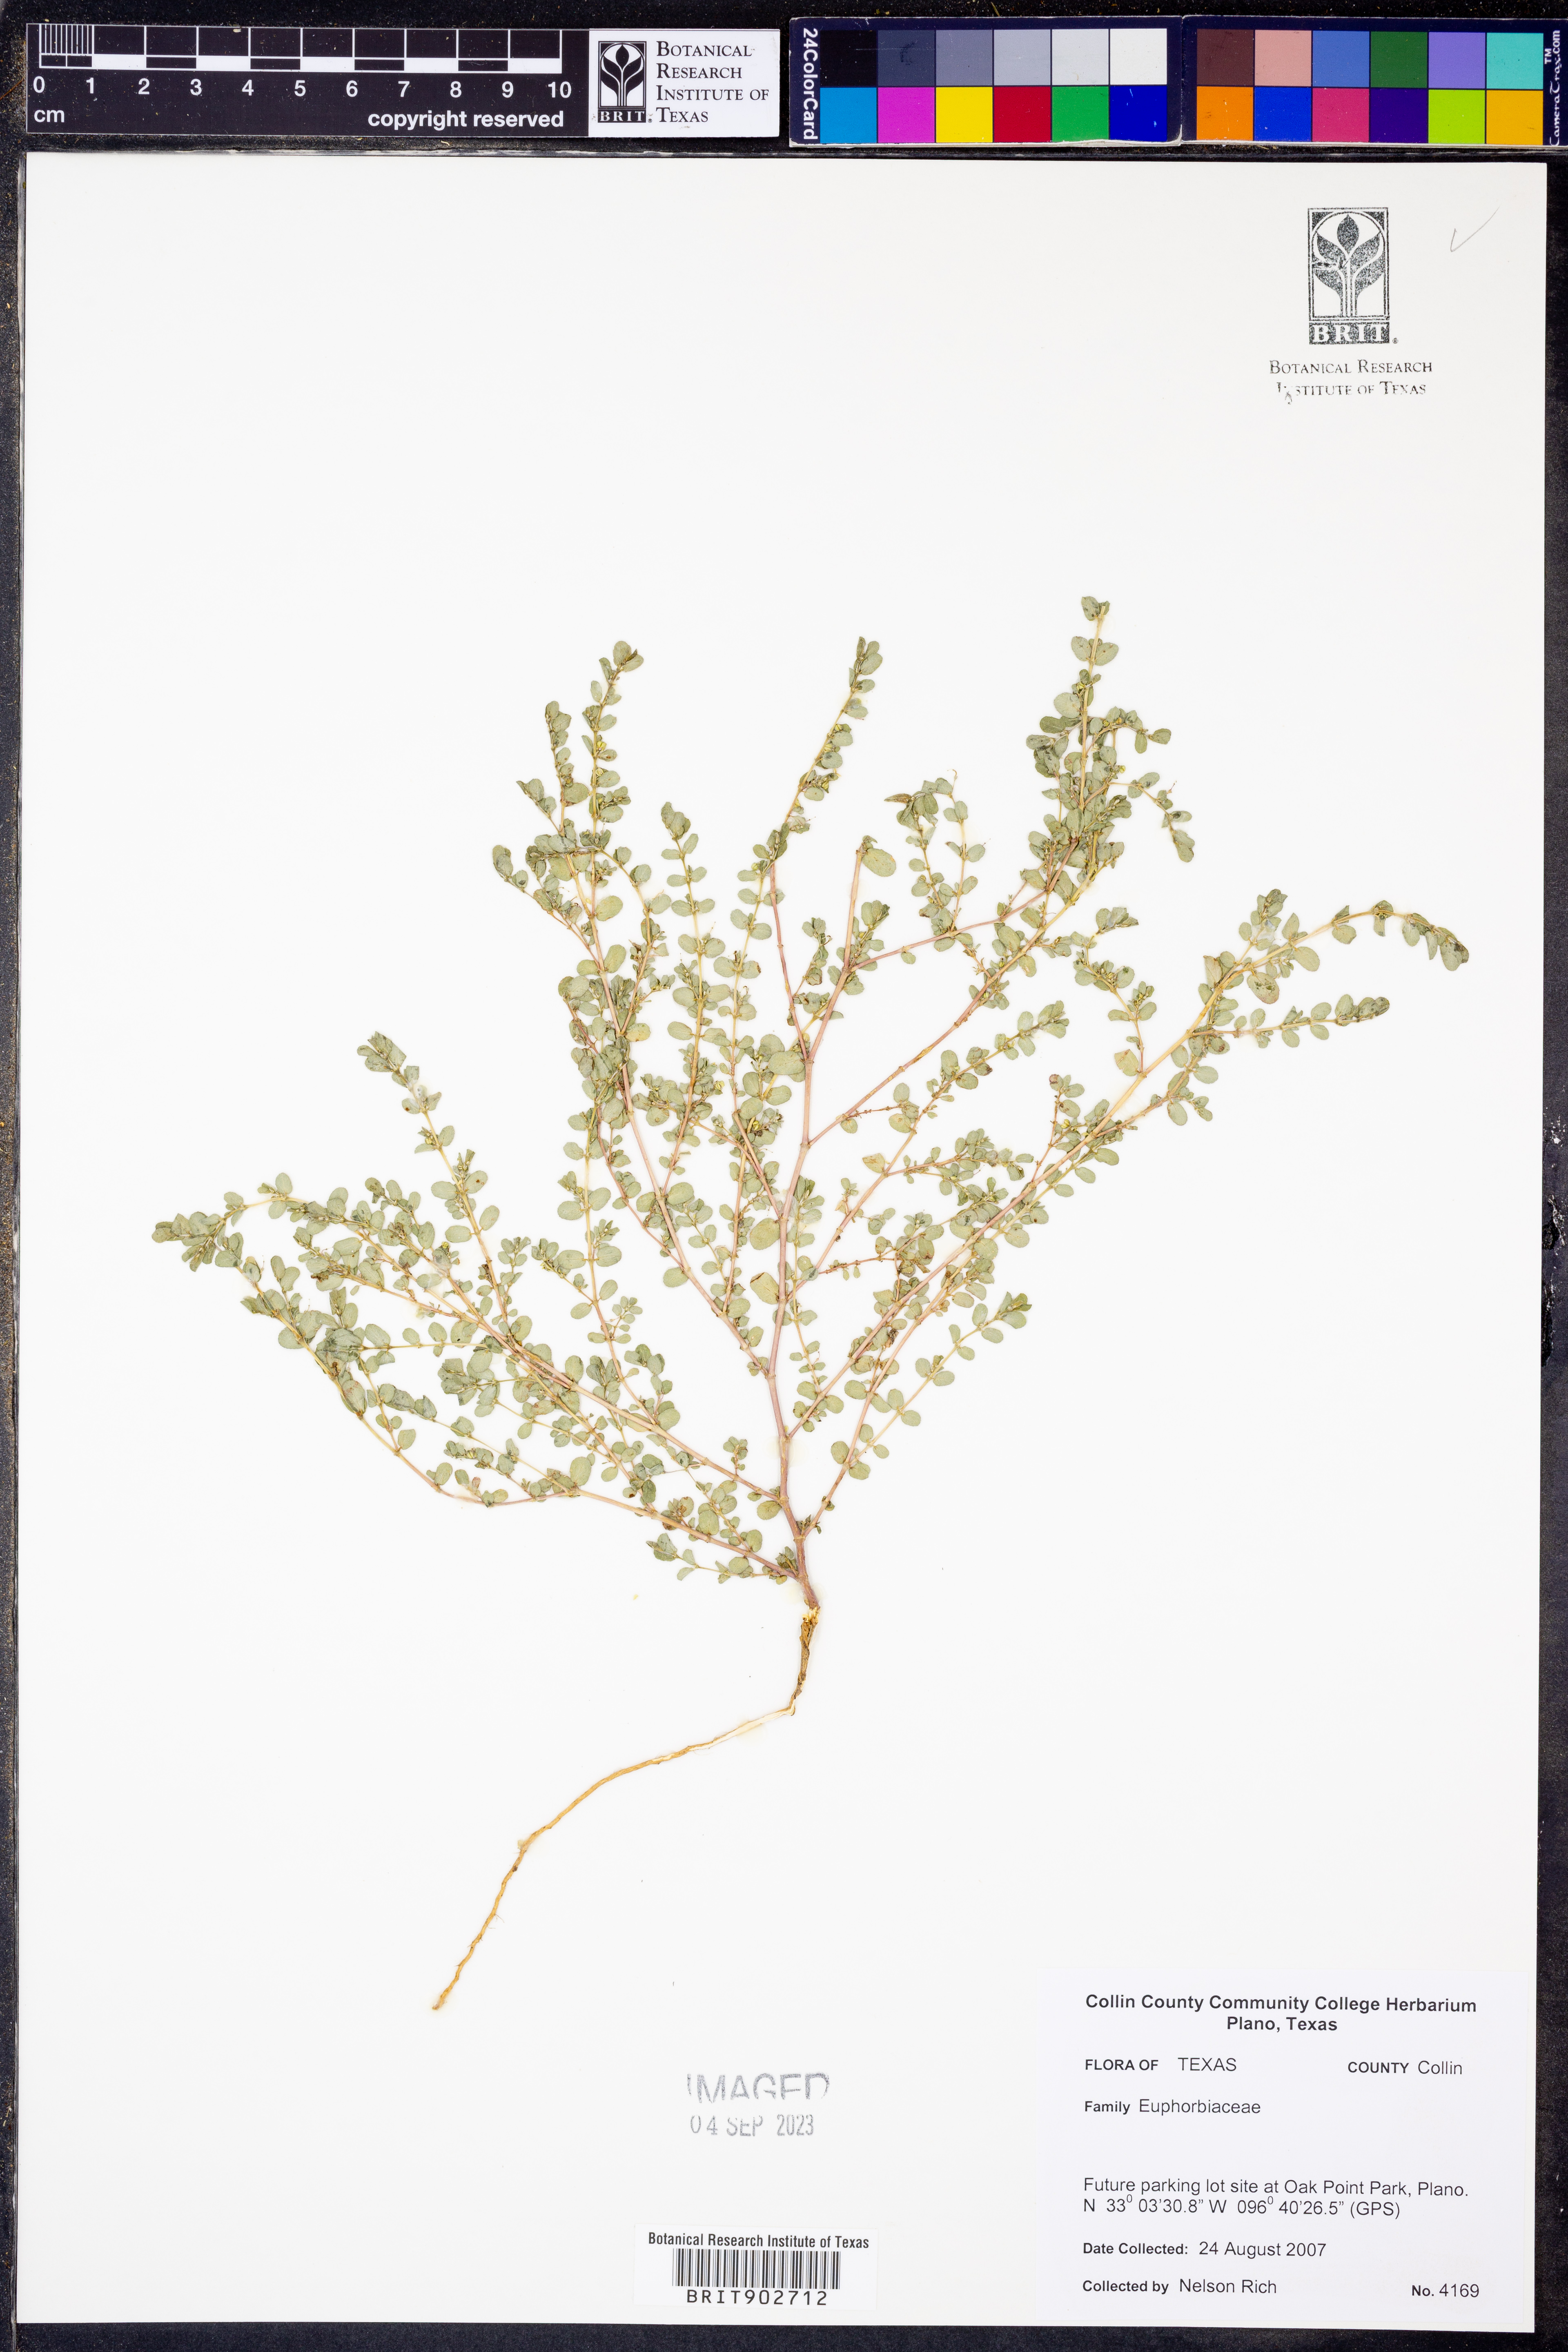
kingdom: Plantae
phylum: Tracheophyta
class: Magnoliopsida
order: Malpighiales
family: Euphorbiaceae
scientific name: Euphorbiaceae
